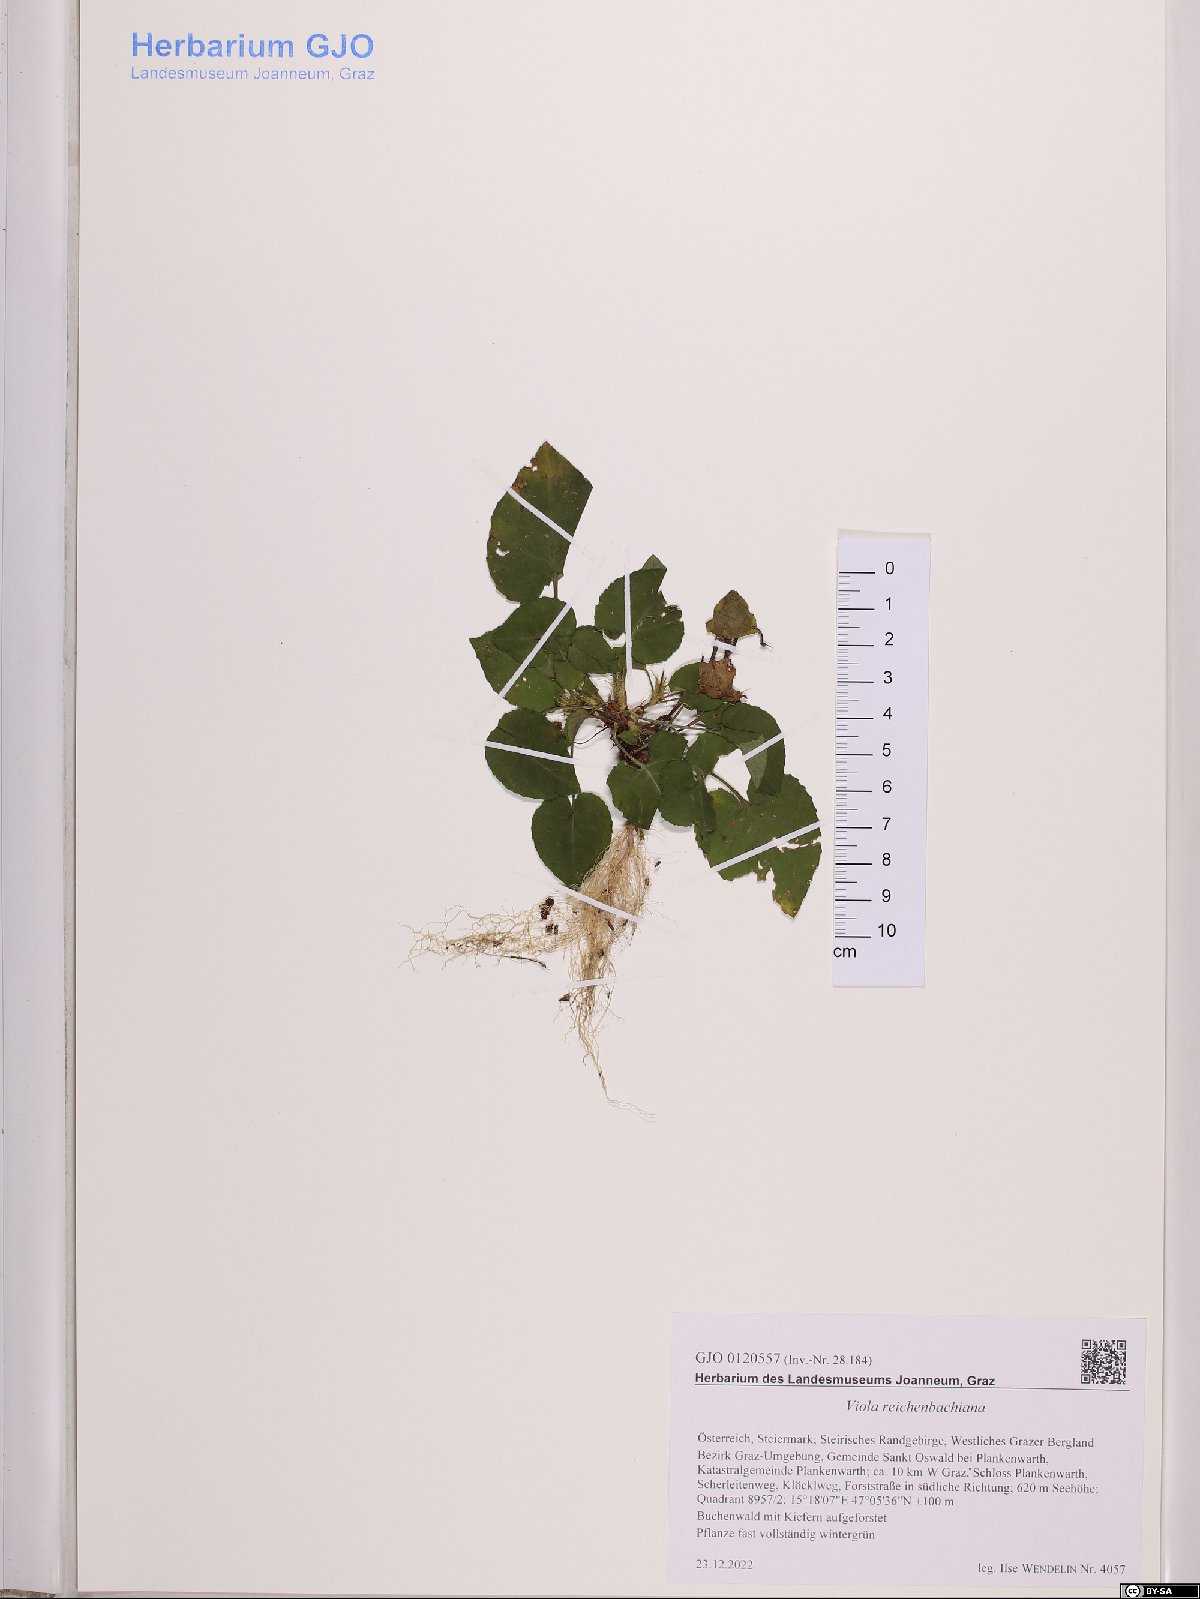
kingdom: Plantae
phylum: Tracheophyta
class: Magnoliopsida
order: Malpighiales
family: Violaceae
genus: Viola
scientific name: Viola reichenbachiana
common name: Early dog-violet
